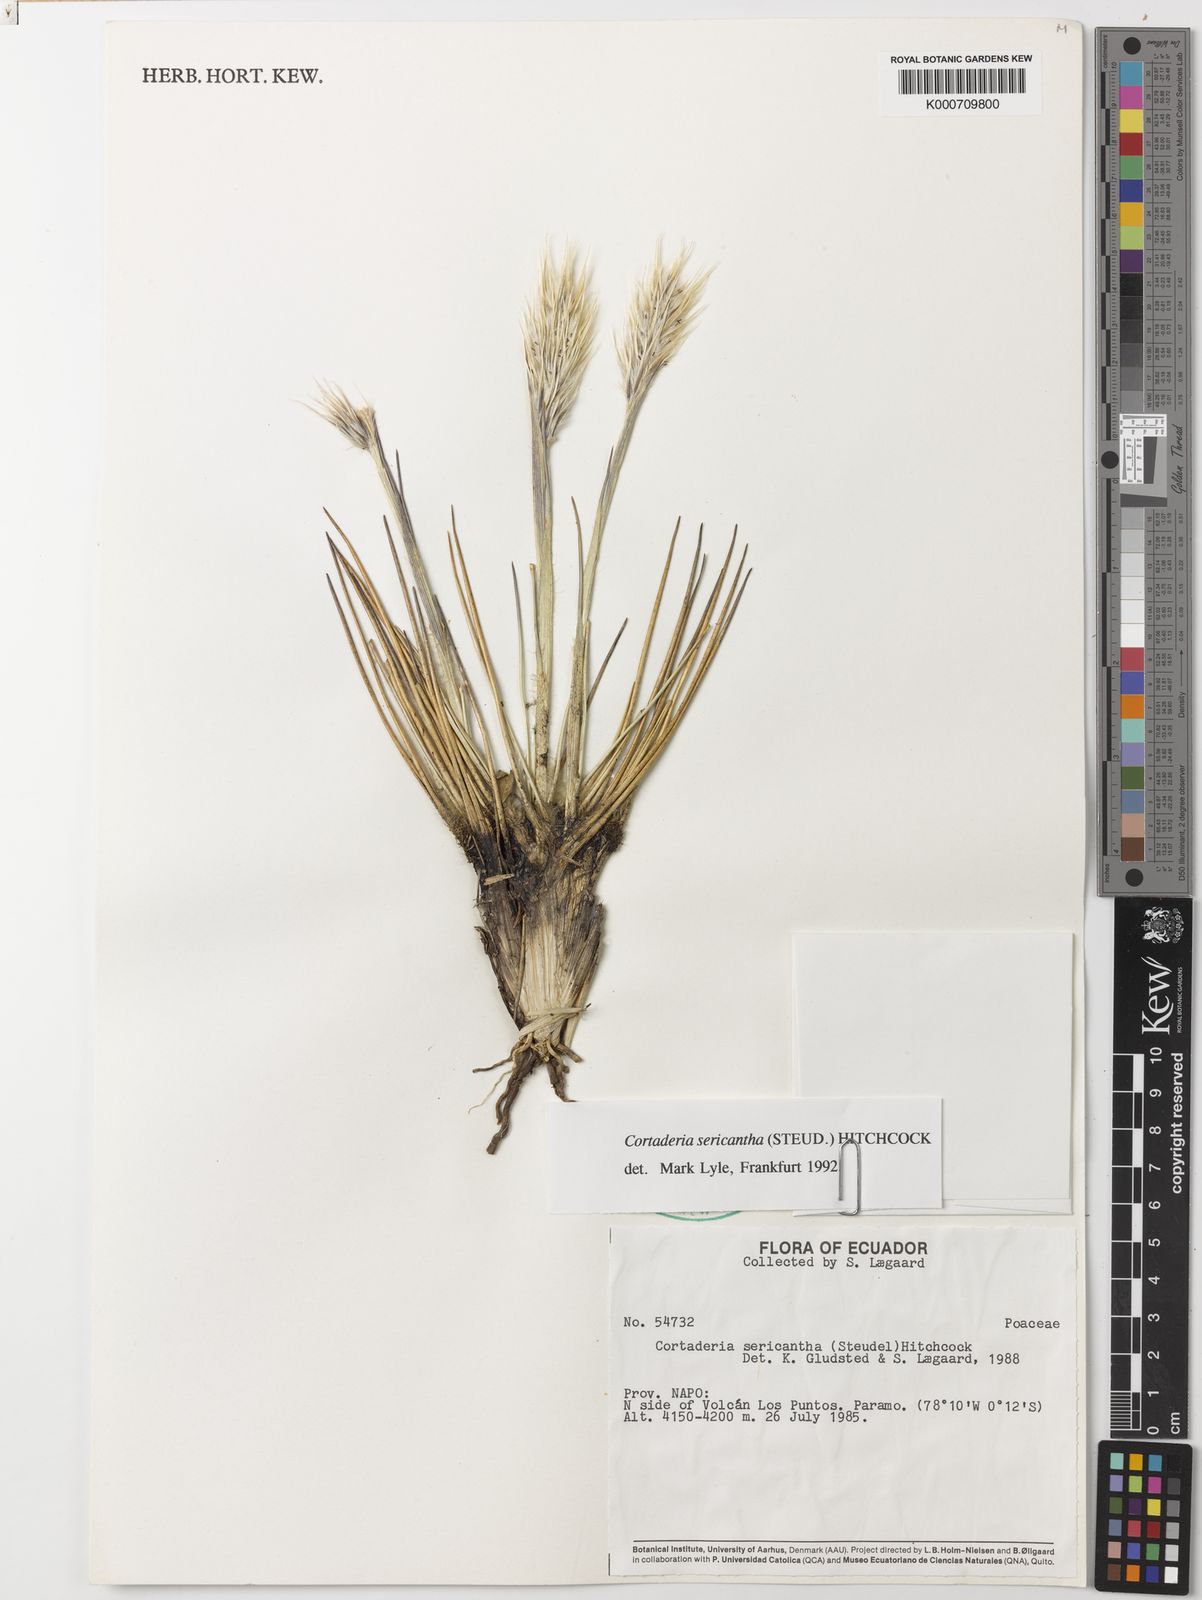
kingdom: Plantae
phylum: Tracheophyta
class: Liliopsida
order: Poales
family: Poaceae
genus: Cortaderia
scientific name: Cortaderia sericantha
